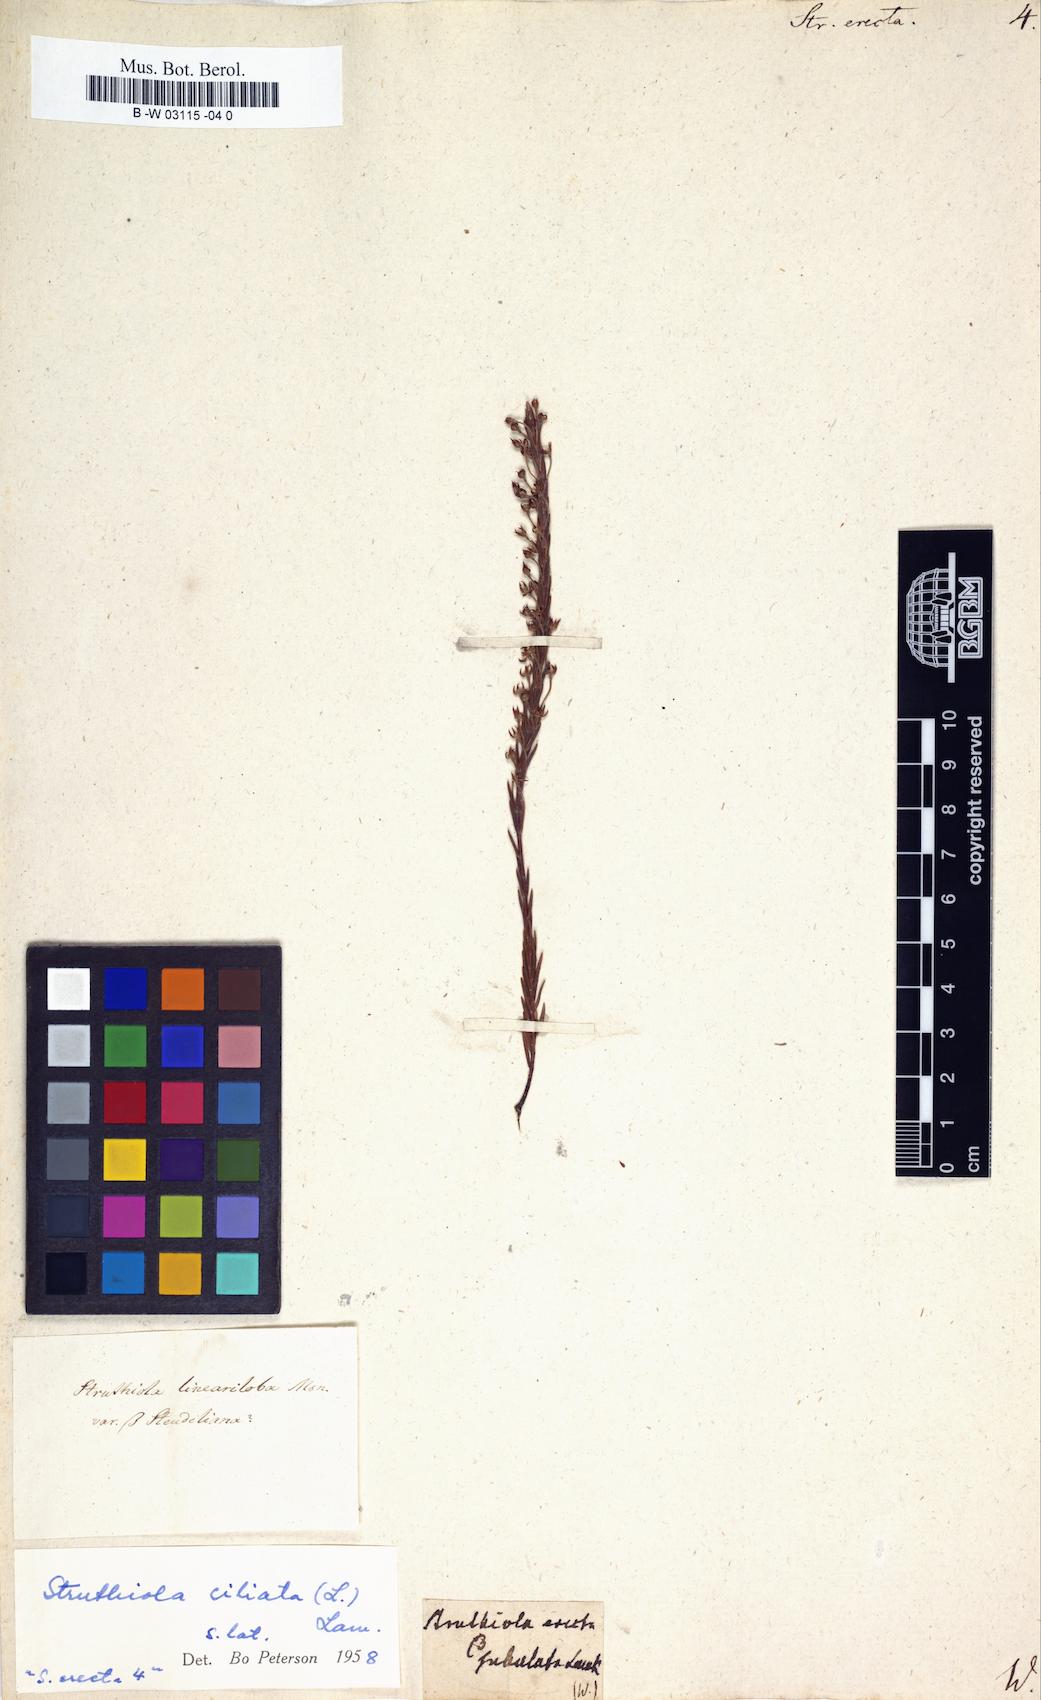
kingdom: Plantae
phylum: Tracheophyta
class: Magnoliopsida
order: Malvales
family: Thymelaeaceae
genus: Struthiola
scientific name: Struthiola
